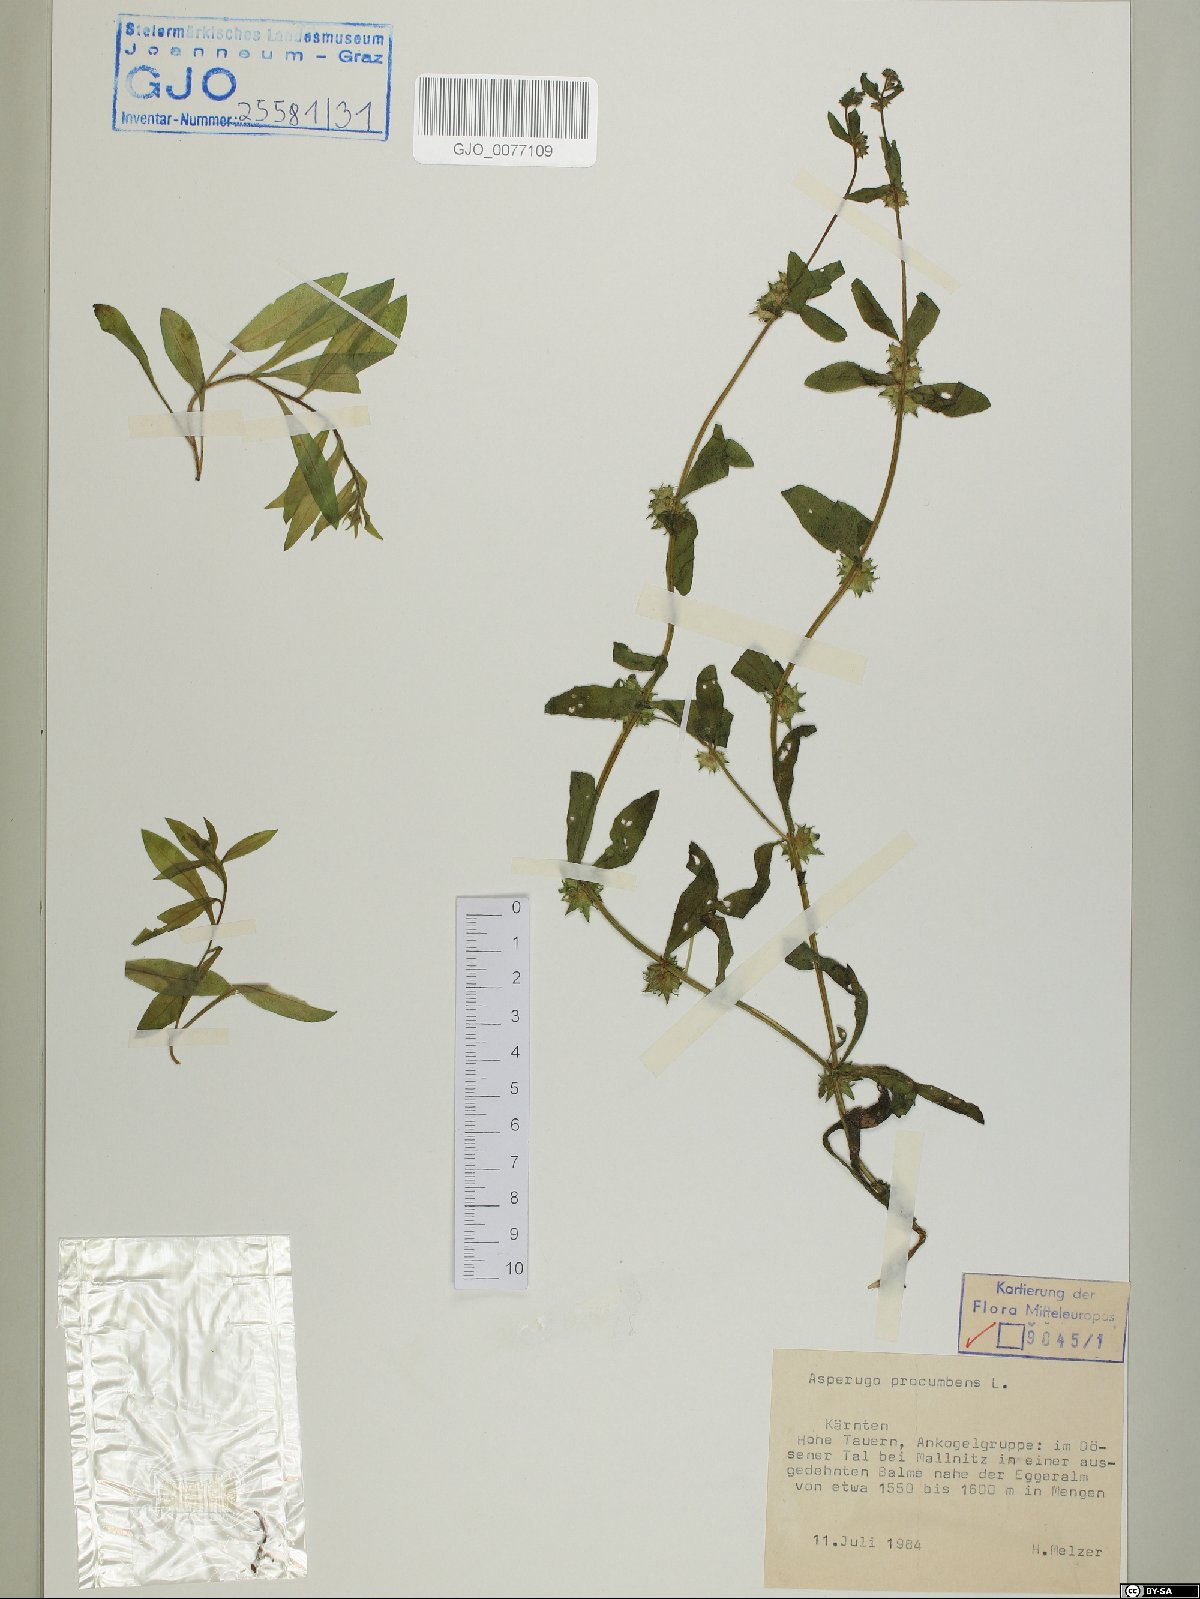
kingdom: Plantae
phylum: Tracheophyta
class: Magnoliopsida
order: Boraginales
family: Boraginaceae
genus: Asperugo
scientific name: Asperugo procumbens
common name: Madwort
